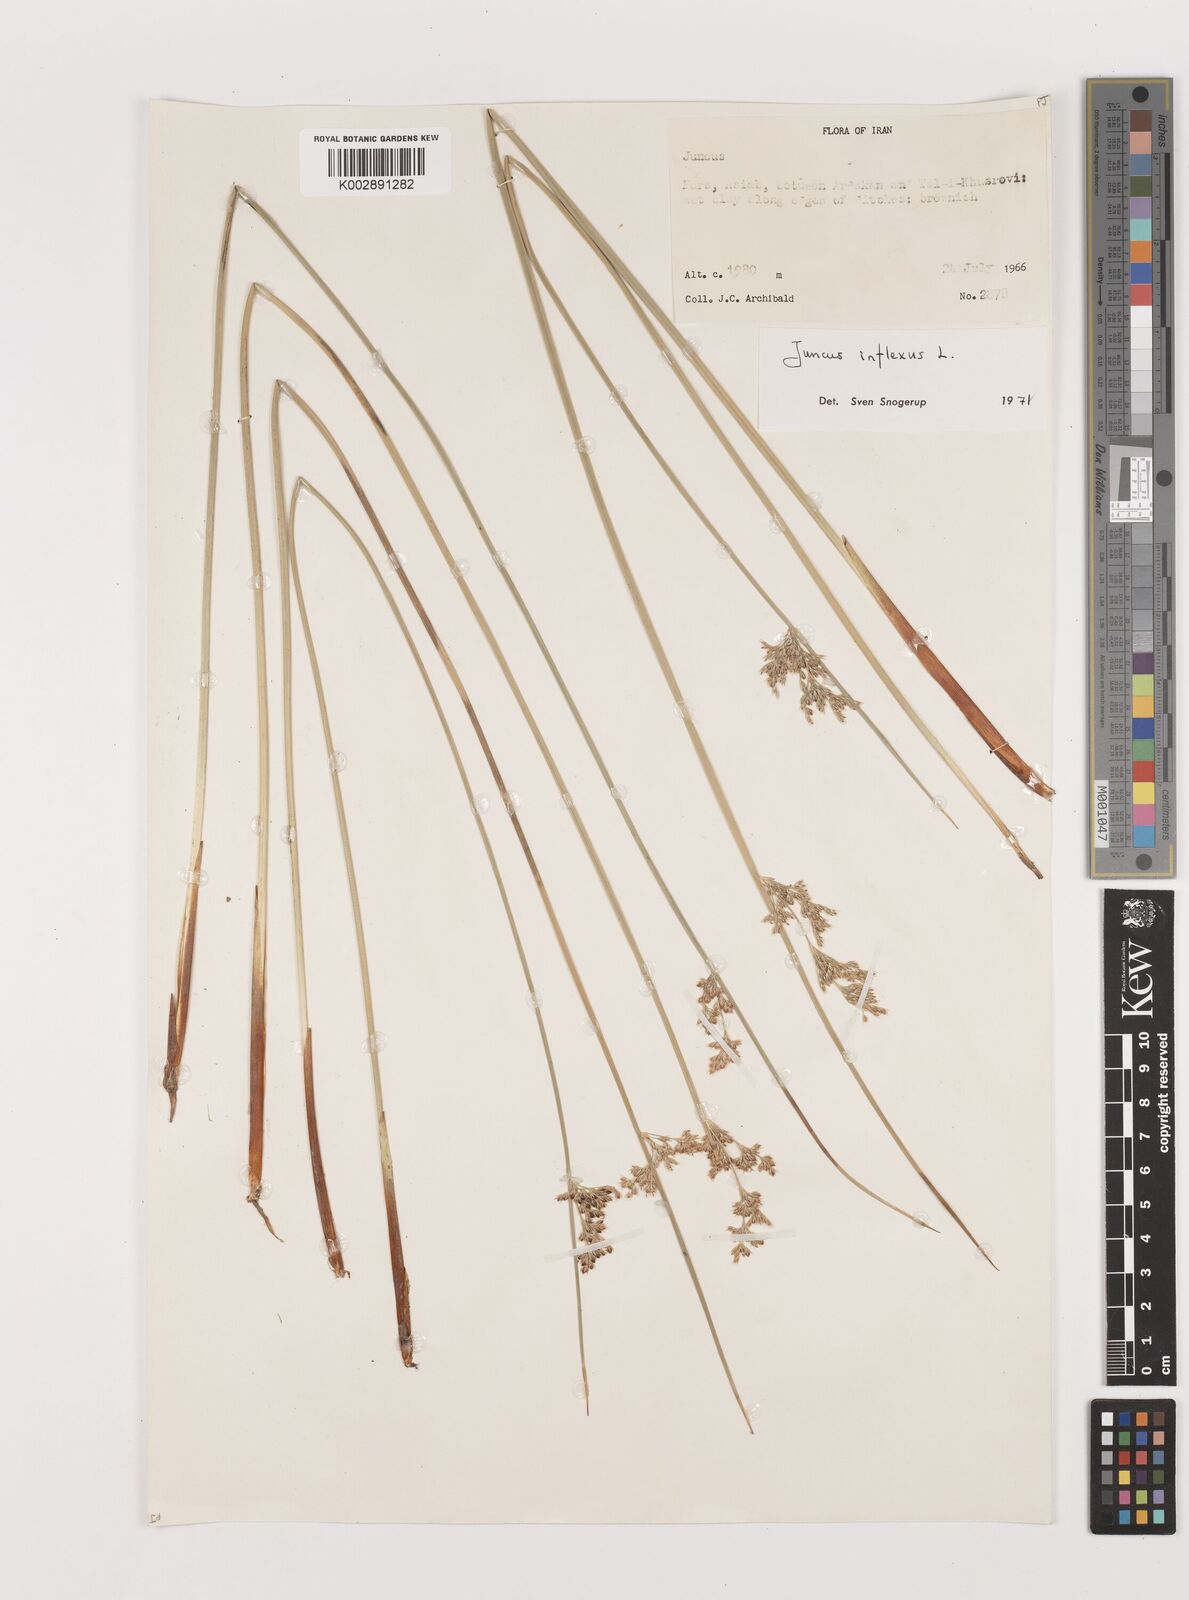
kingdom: Plantae
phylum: Tracheophyta
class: Liliopsida
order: Poales
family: Juncaceae
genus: Juncus
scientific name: Juncus inflexus
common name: Hard rush
